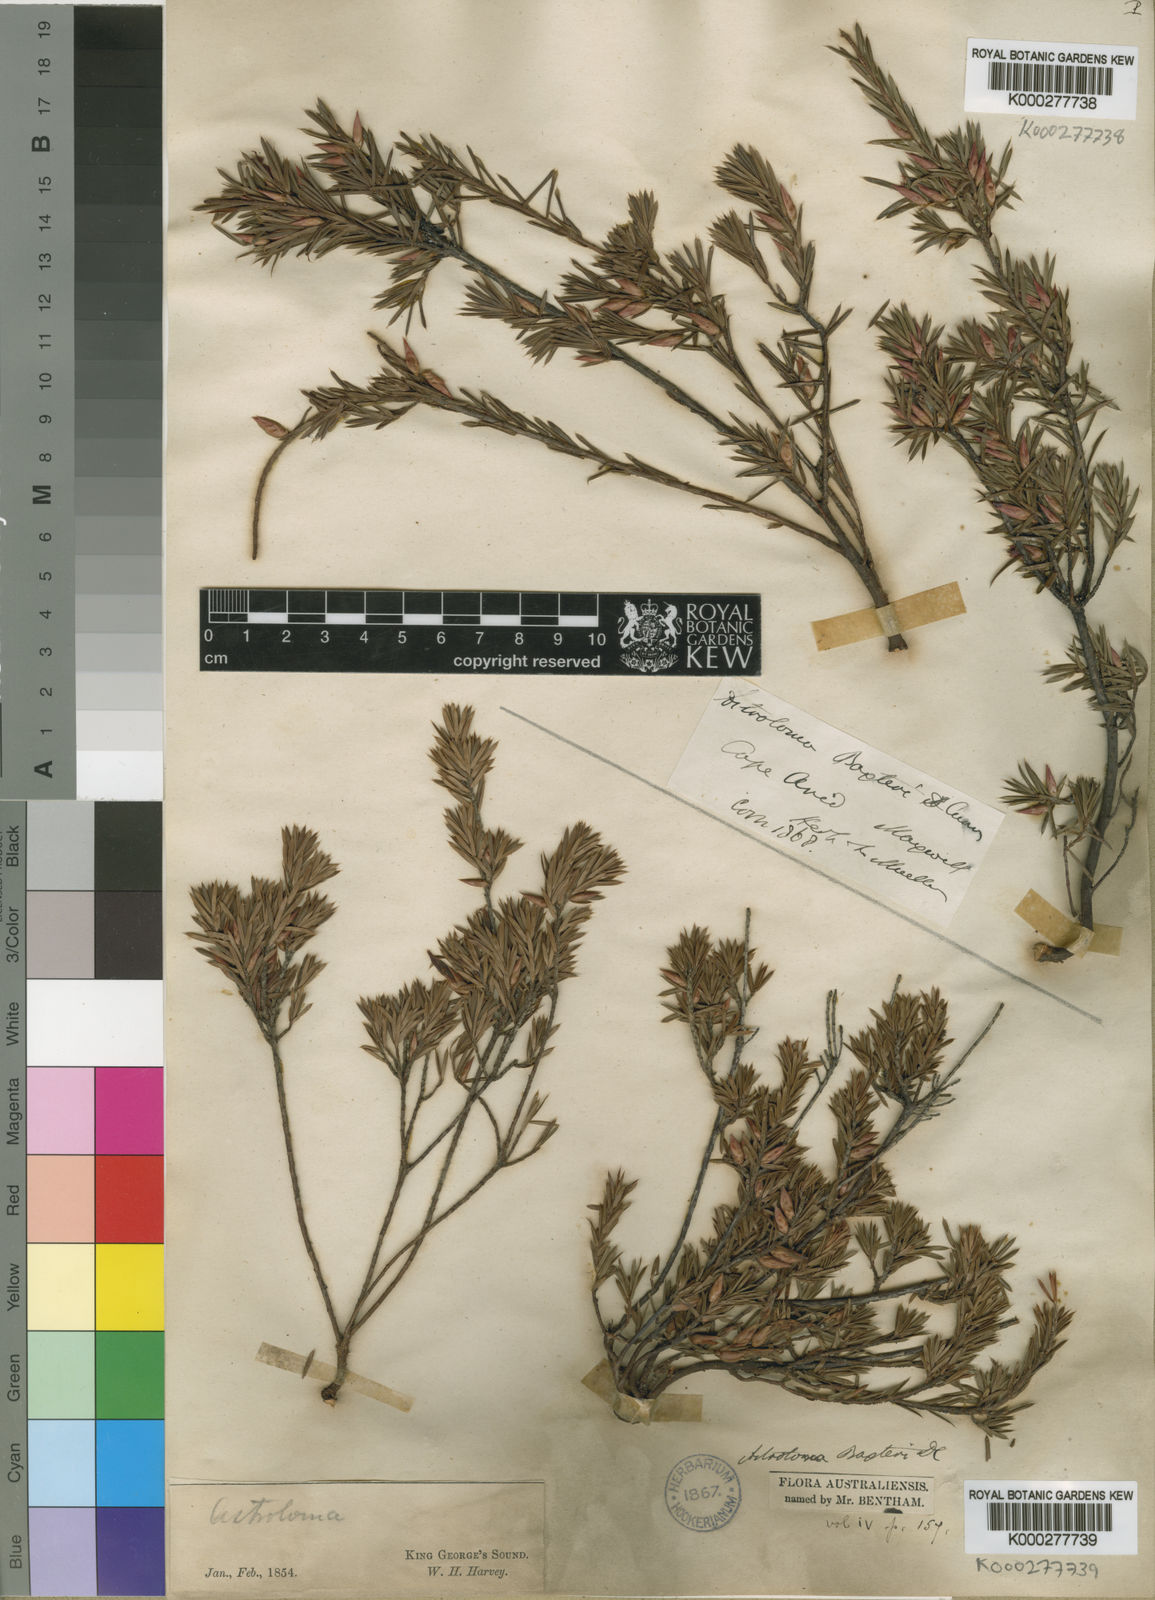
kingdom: Plantae
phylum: Tracheophyta
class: Magnoliopsida
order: Ericales
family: Ericaceae
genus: Brachyloma
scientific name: Brachyloma baxteri
